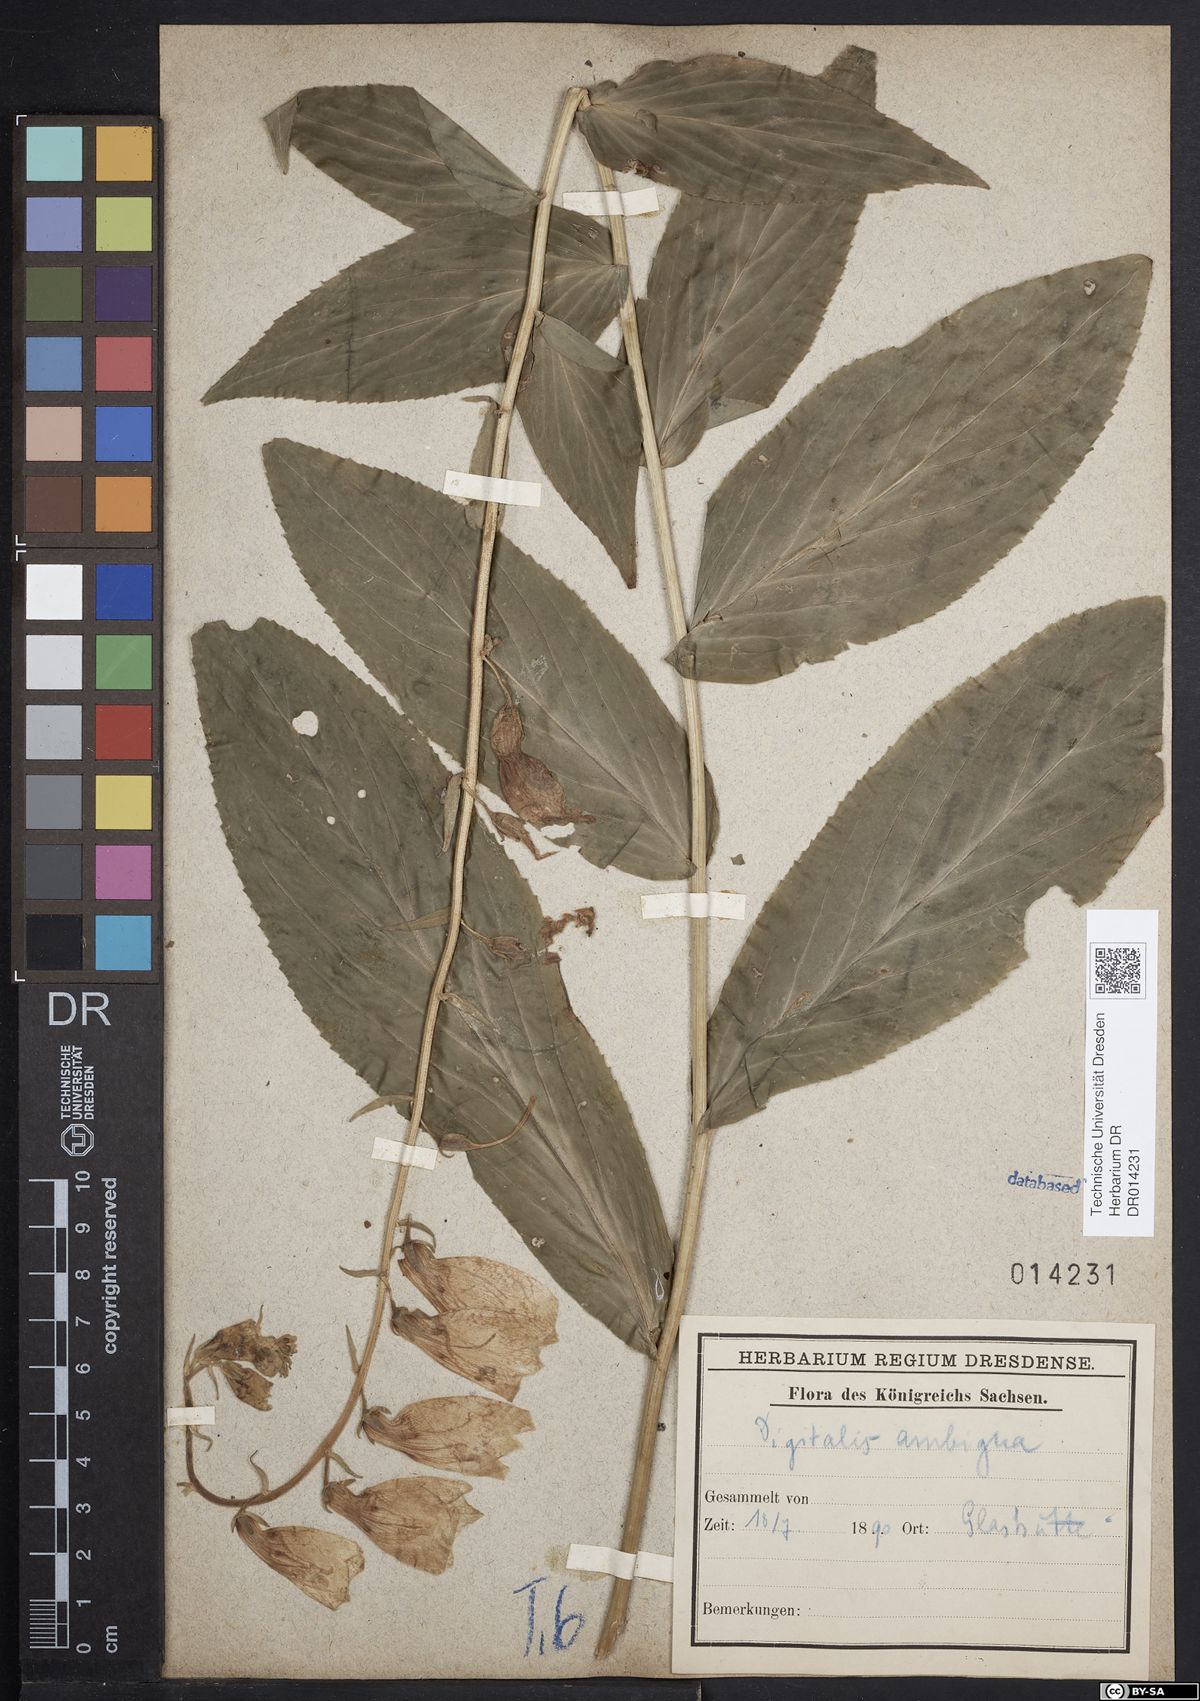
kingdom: Plantae
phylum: Tracheophyta
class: Magnoliopsida
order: Lamiales
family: Plantaginaceae
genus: Digitalis
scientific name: Digitalis grandiflora
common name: Yellow foxglove
